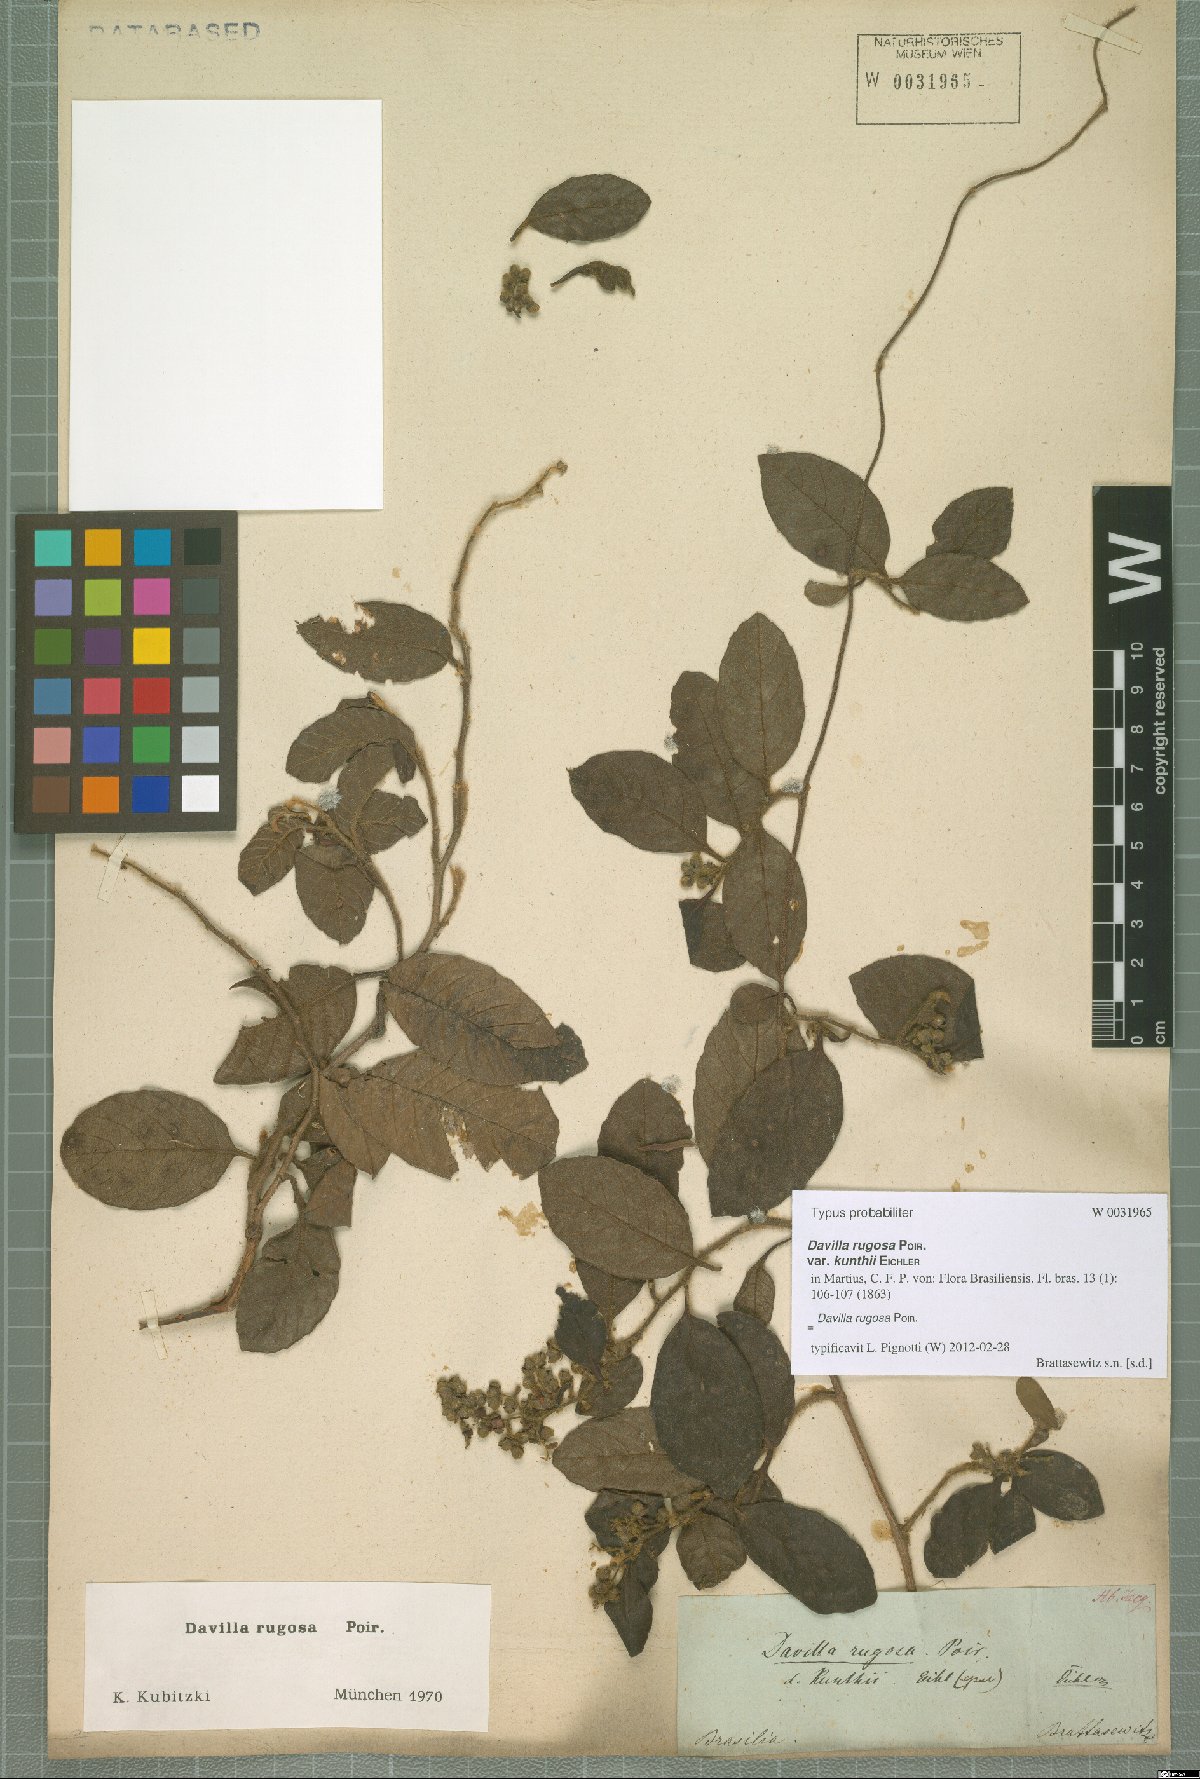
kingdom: Plantae
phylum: Tracheophyta
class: Magnoliopsida
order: Dilleniales
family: Dilleniaceae
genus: Davilla
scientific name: Davilla rugosa
